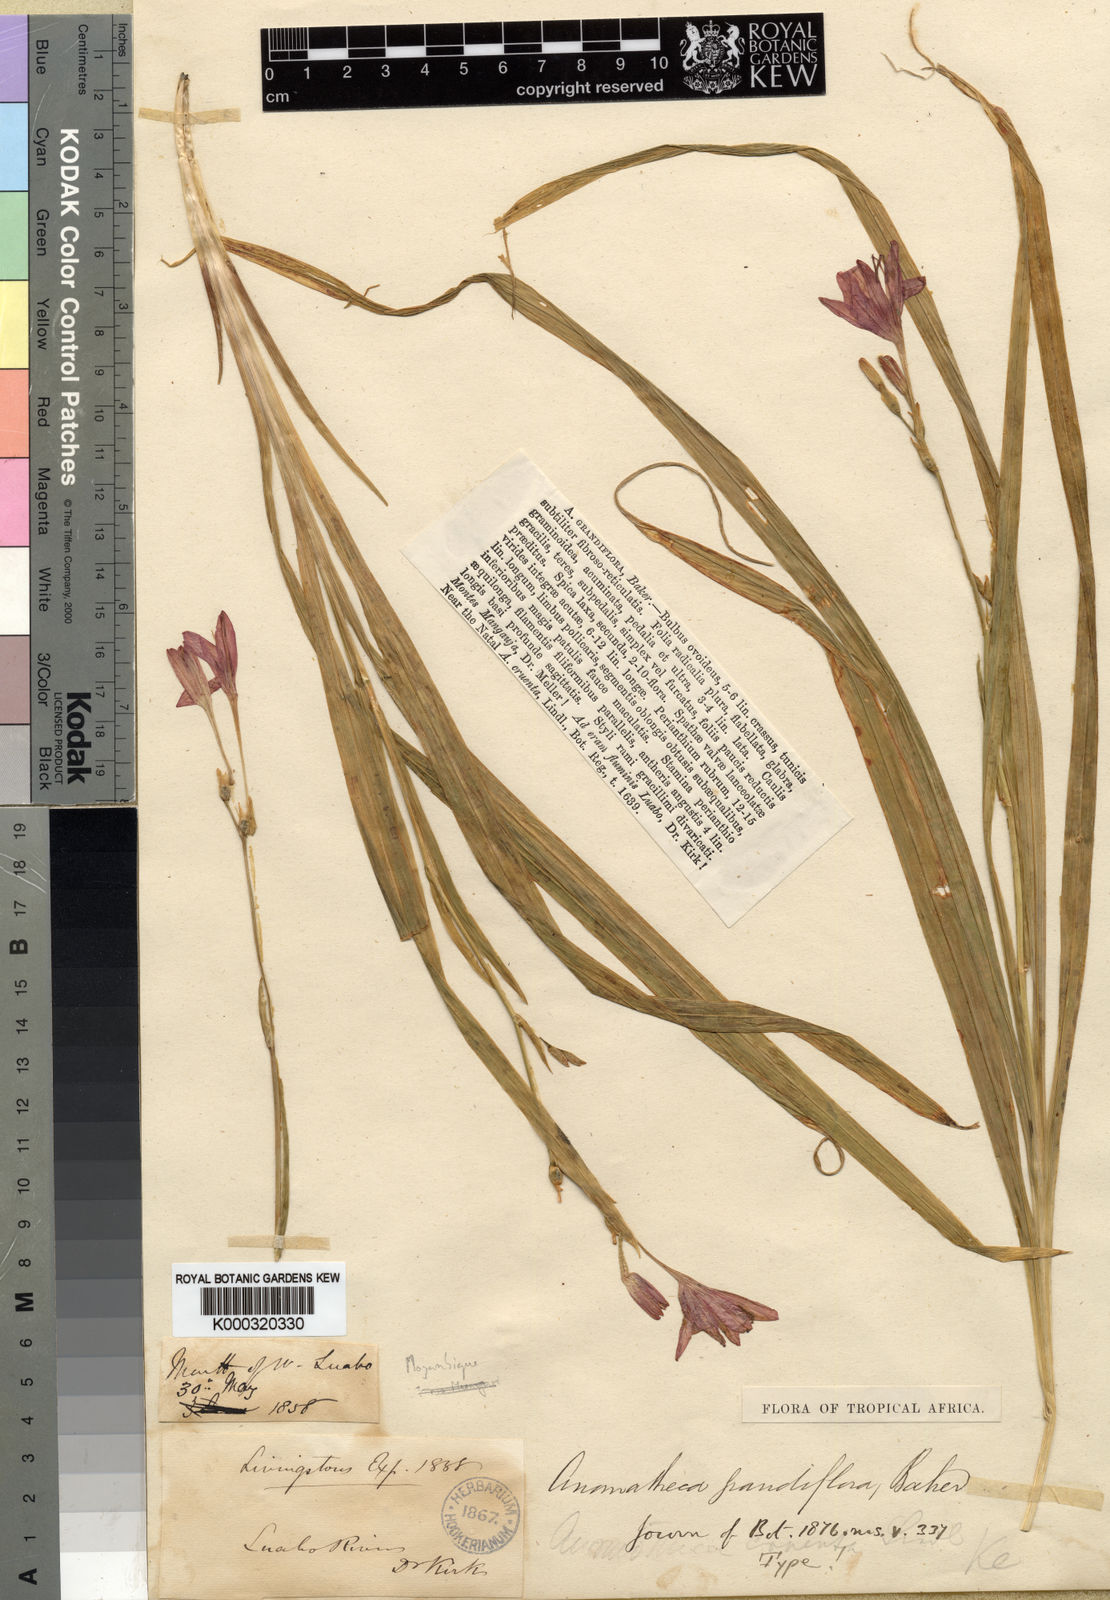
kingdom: Plantae
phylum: Tracheophyta
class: Liliopsida
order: Asparagales
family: Iridaceae
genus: Freesia
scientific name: Freesia grandiflora
